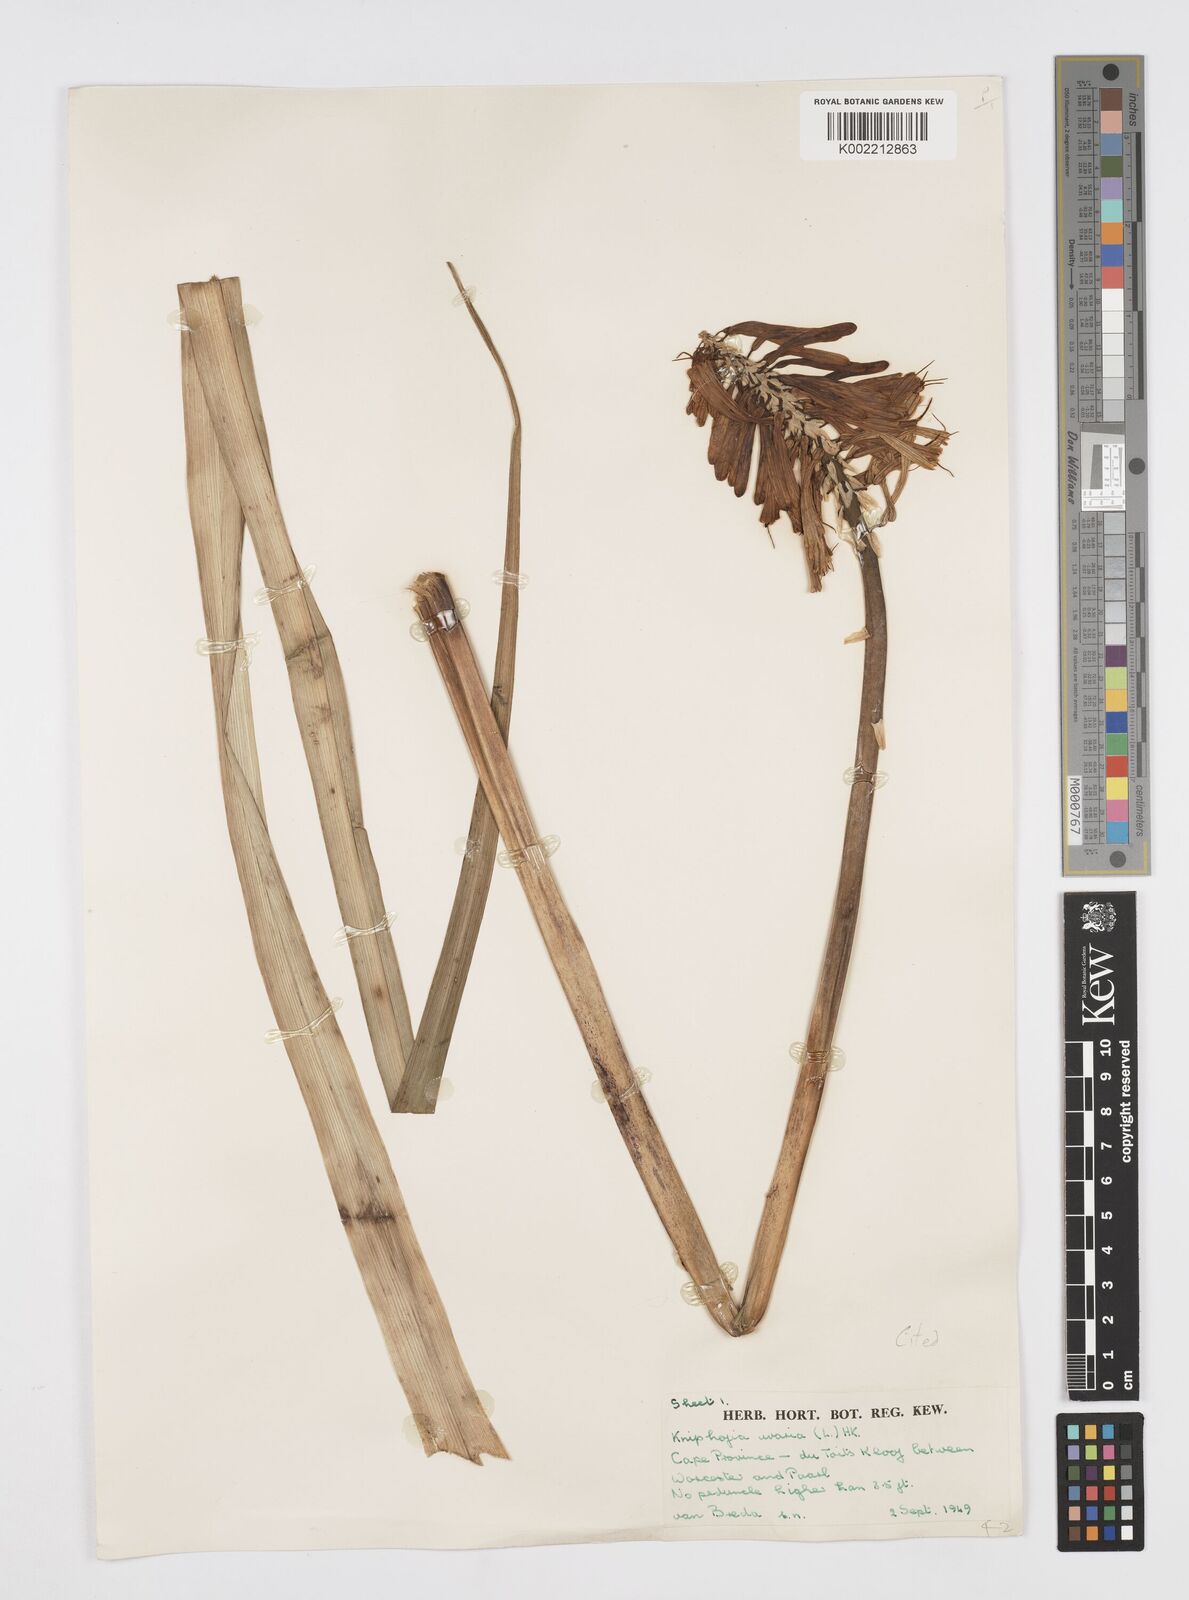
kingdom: Plantae
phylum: Tracheophyta
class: Liliopsida
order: Asparagales
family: Asphodelaceae
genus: Kniphofia
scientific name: Kniphofia uvaria
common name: Red-hot-poker
